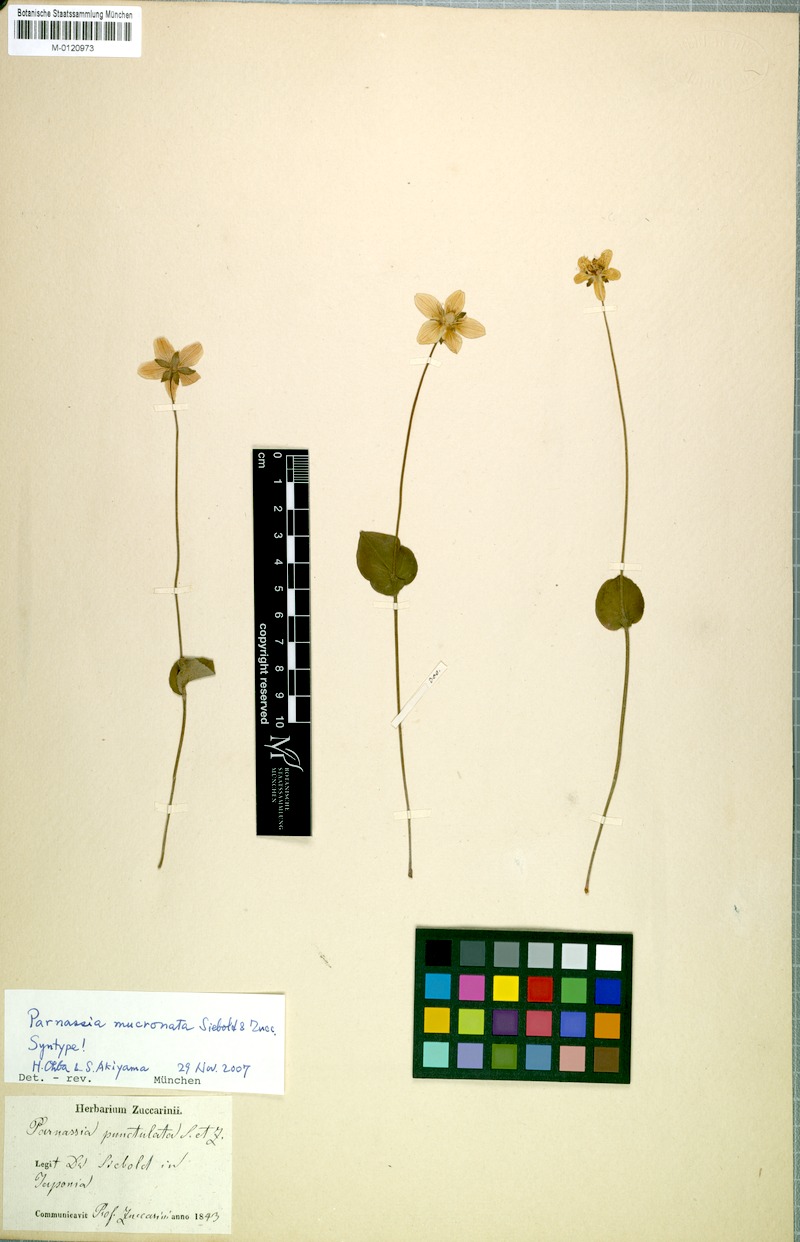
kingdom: Plantae
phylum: Tracheophyta
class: Magnoliopsida
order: Celastrales
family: Parnassiaceae
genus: Parnassia
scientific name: Parnassia palustris
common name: Grass-of-parnassus
